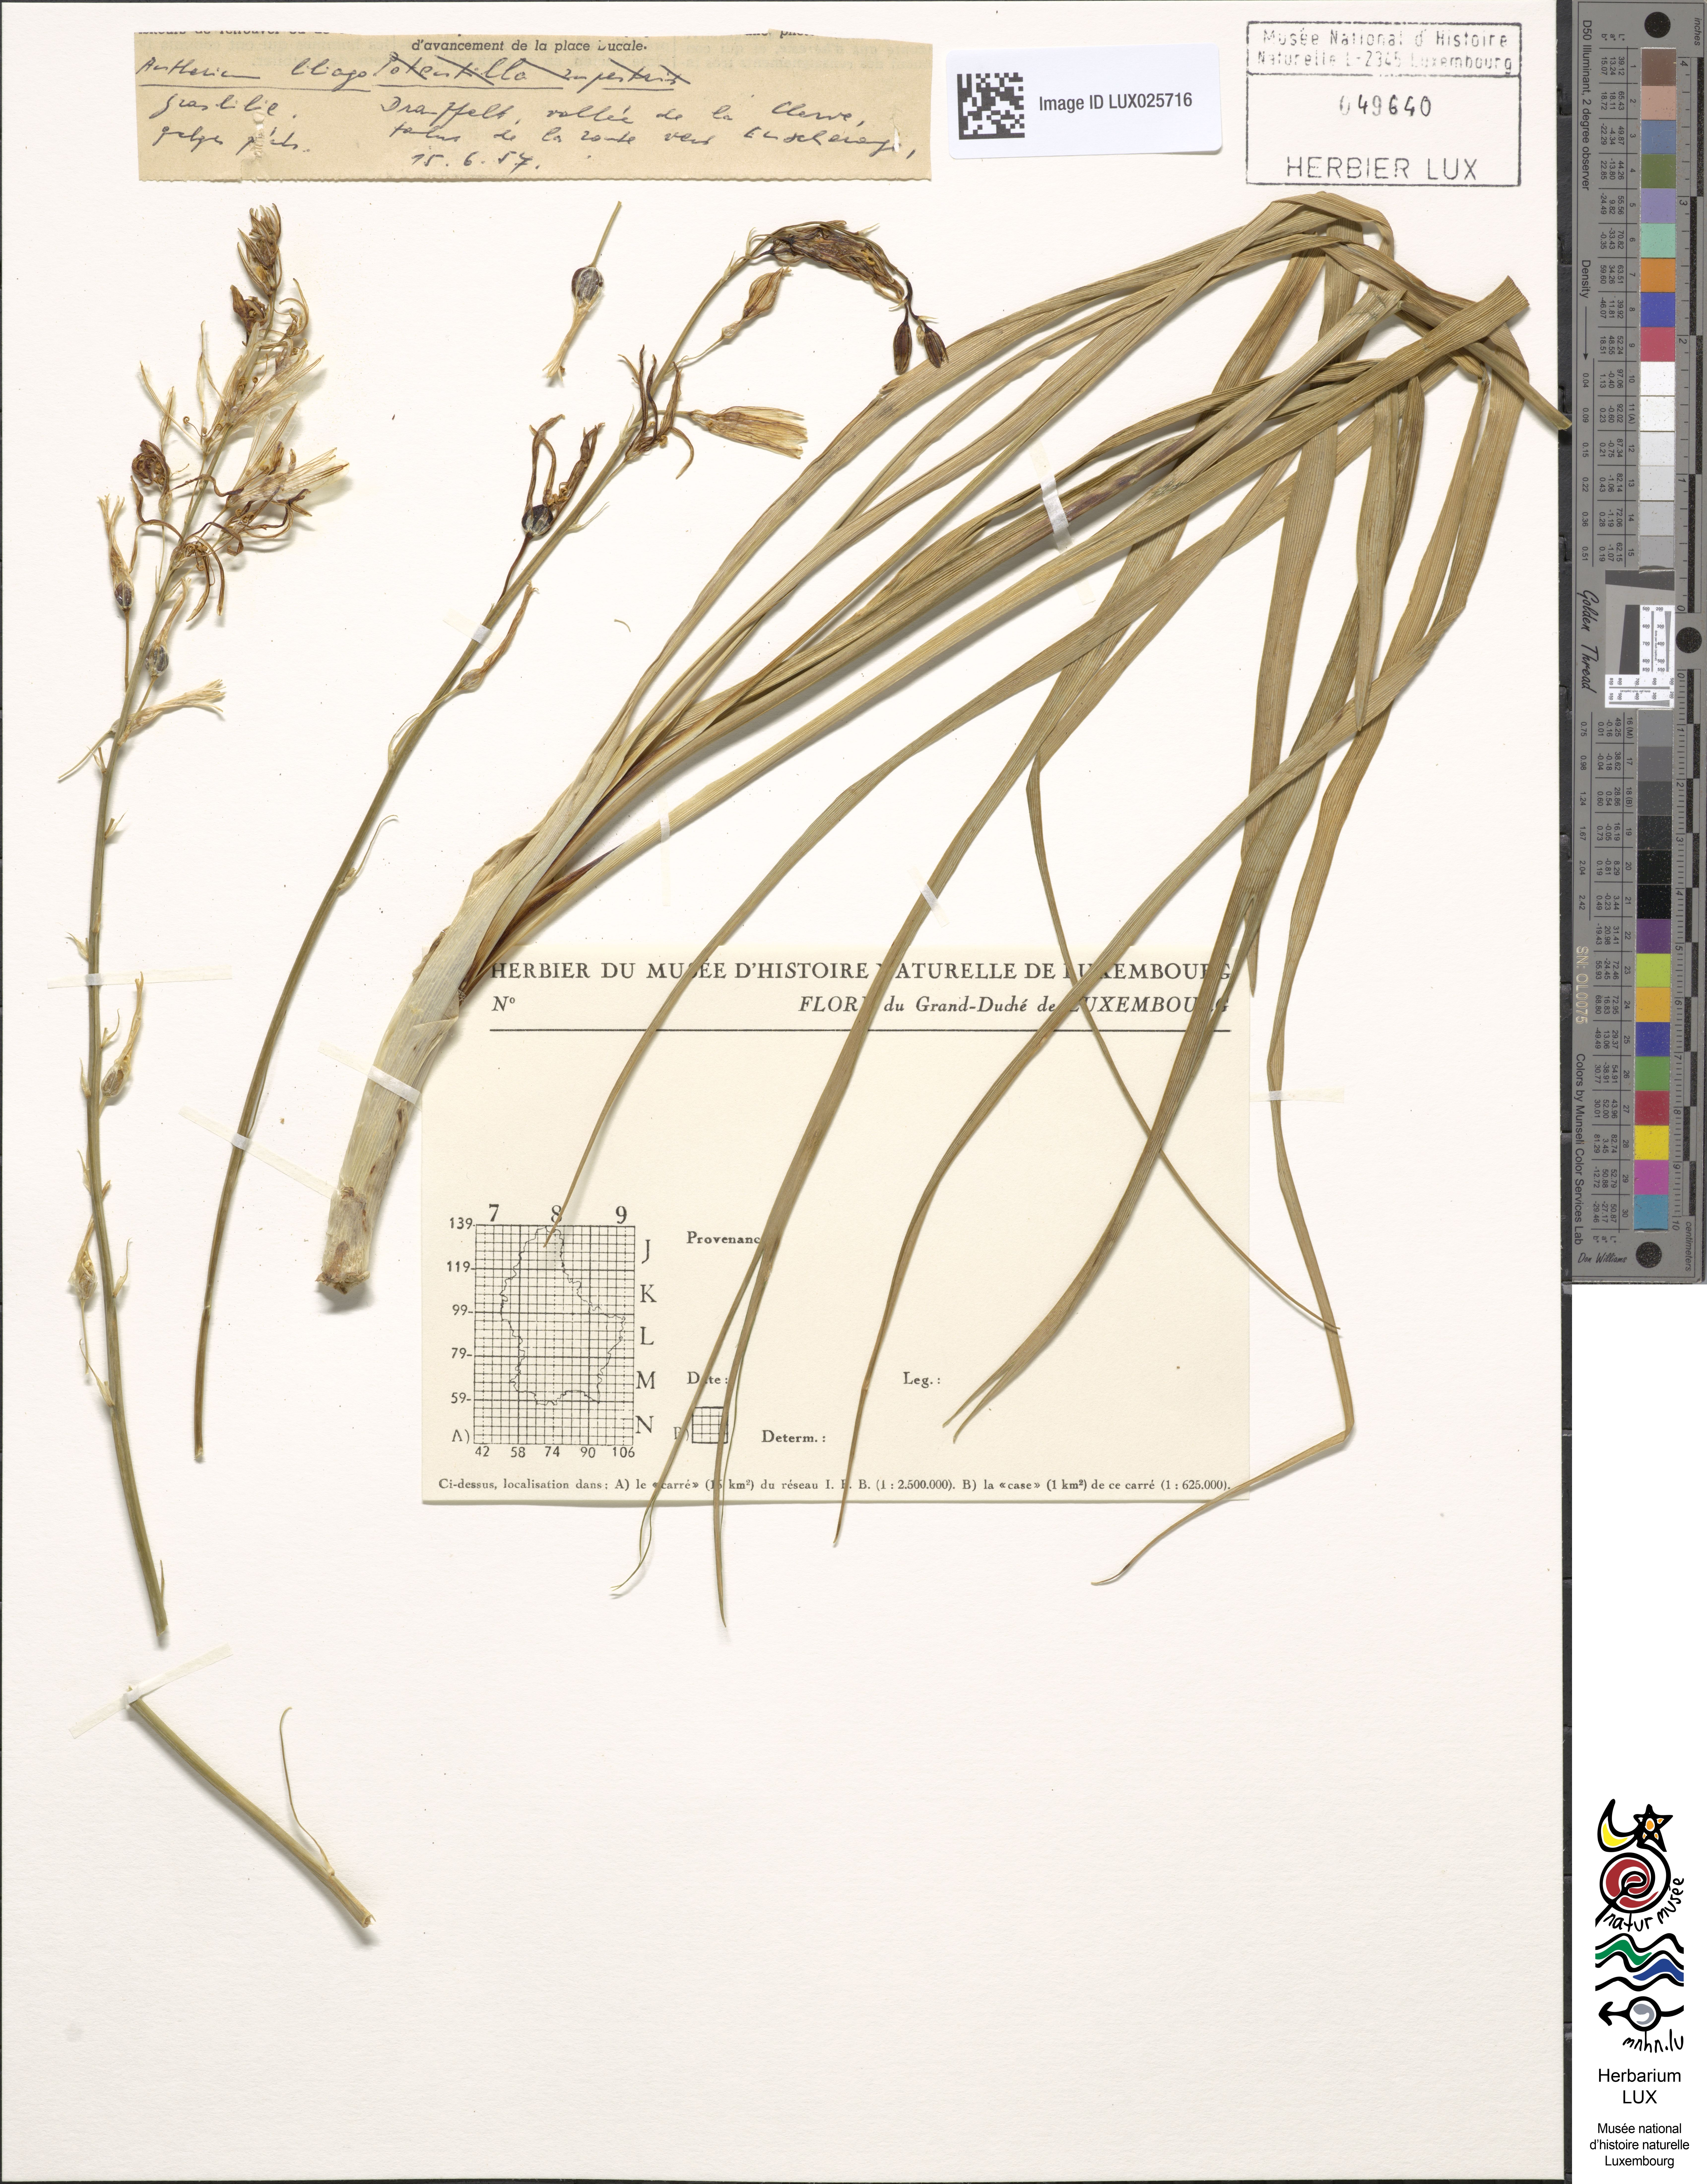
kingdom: Plantae
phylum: Tracheophyta
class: Liliopsida
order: Asparagales
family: Asparagaceae
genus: Anthericum
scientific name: Anthericum liliago
